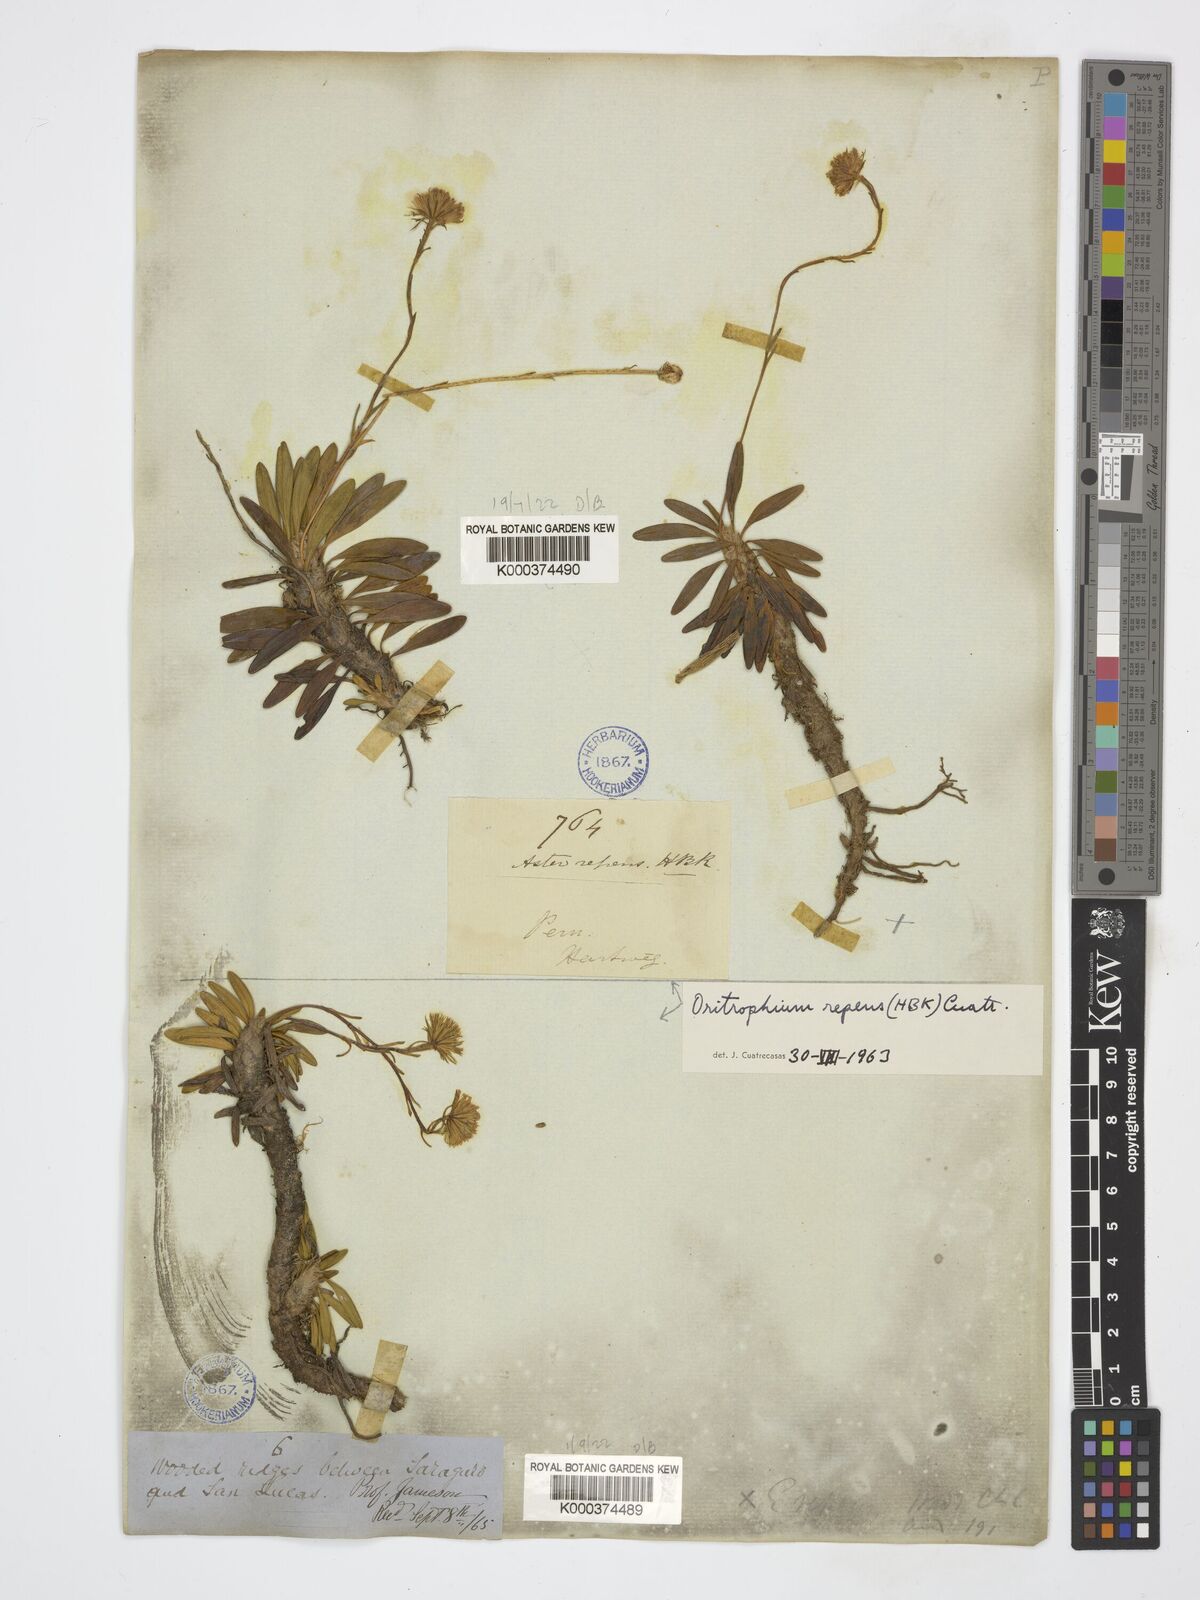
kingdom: Plantae
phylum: Tracheophyta
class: Magnoliopsida
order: Asterales
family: Asteraceae
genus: Oritrophium
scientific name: Oritrophium repens
